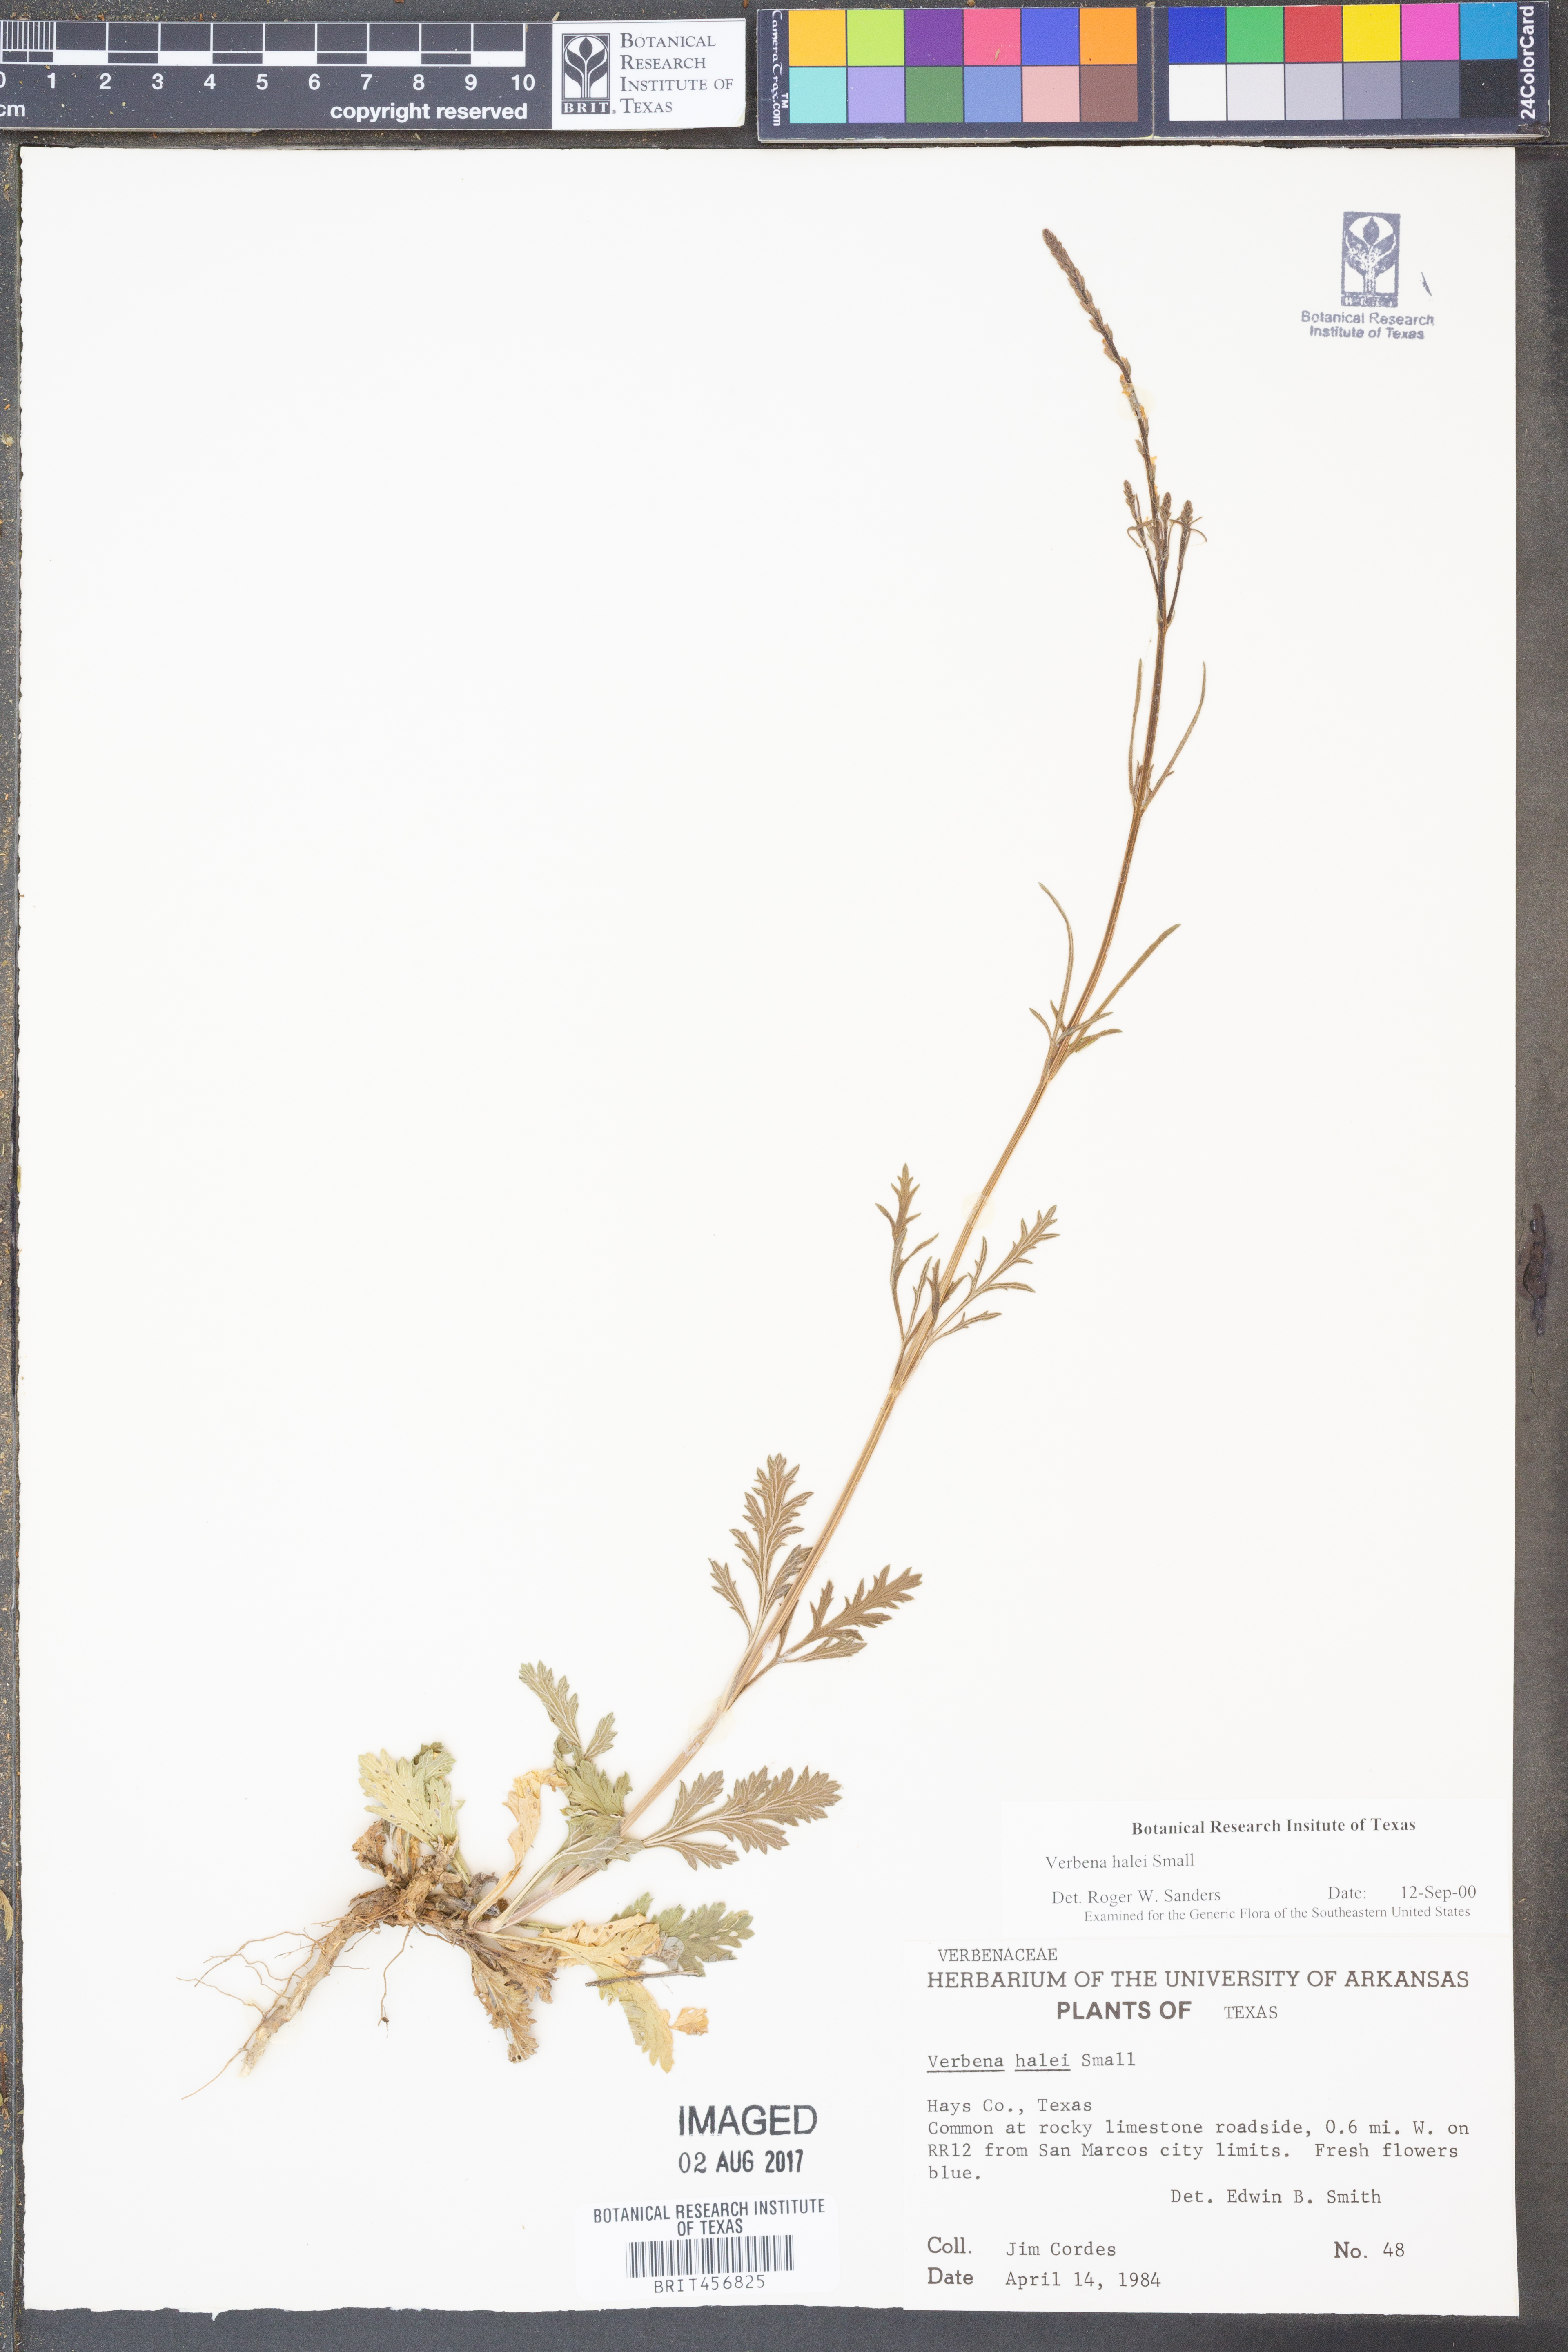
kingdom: Plantae
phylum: Tracheophyta
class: Magnoliopsida
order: Lamiales
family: Verbenaceae
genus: Verbena
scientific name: Verbena halei
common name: Texas vervain
